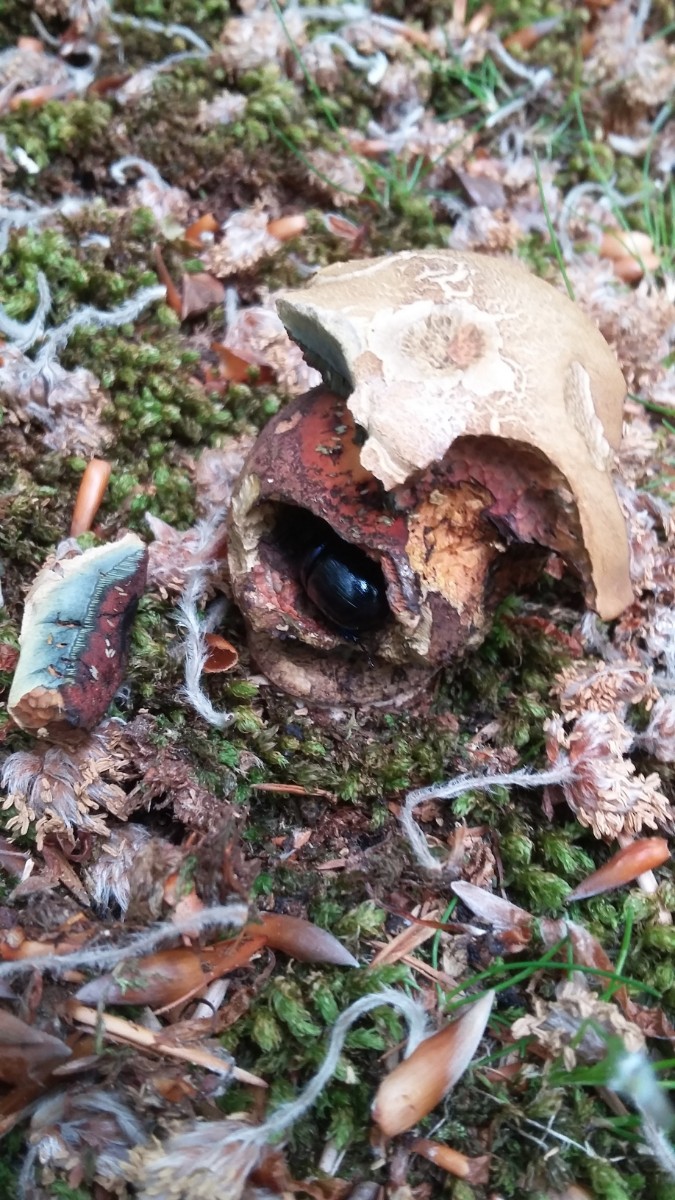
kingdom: Fungi
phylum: Basidiomycota
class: Agaricomycetes
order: Boletales
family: Boletaceae
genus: Neoboletus
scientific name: Neoboletus erythropus
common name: punktstokket indigorørhat
